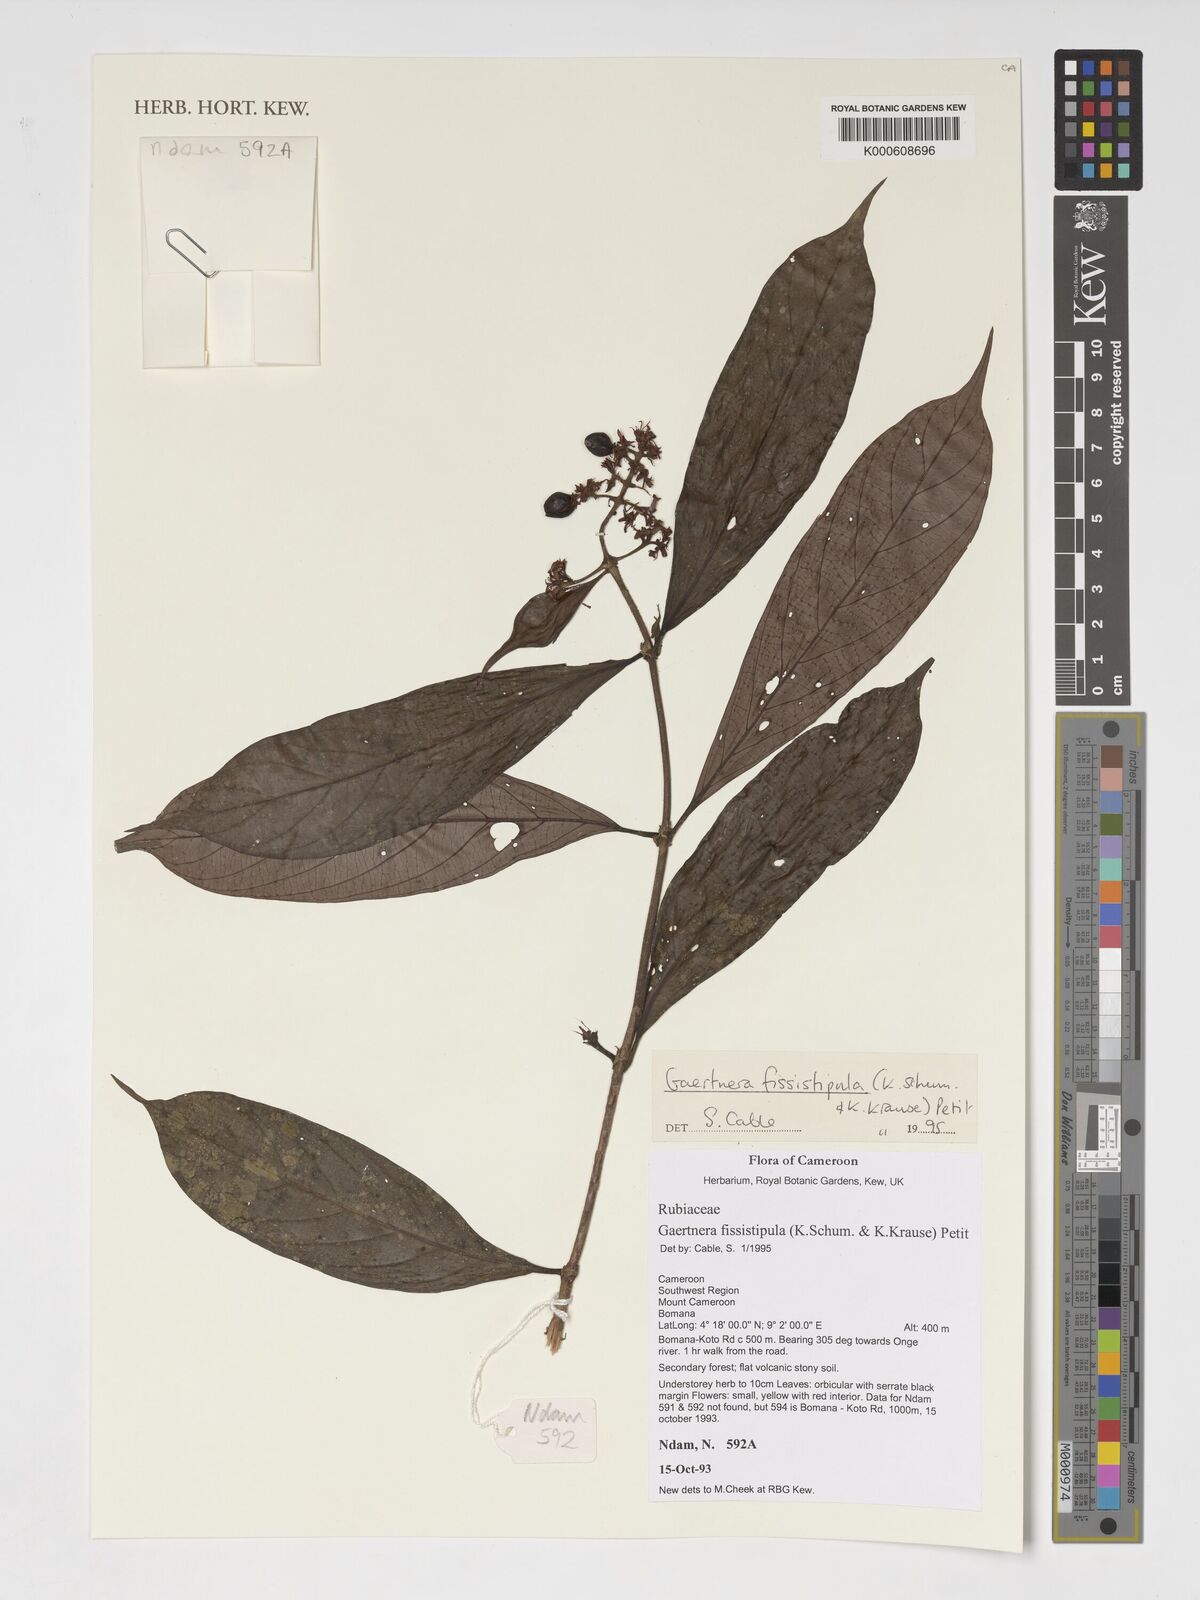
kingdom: Plantae
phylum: Tracheophyta
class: Magnoliopsida
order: Gentianales
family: Rubiaceae
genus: Gaertnera
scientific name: Gaertnera bieleri
